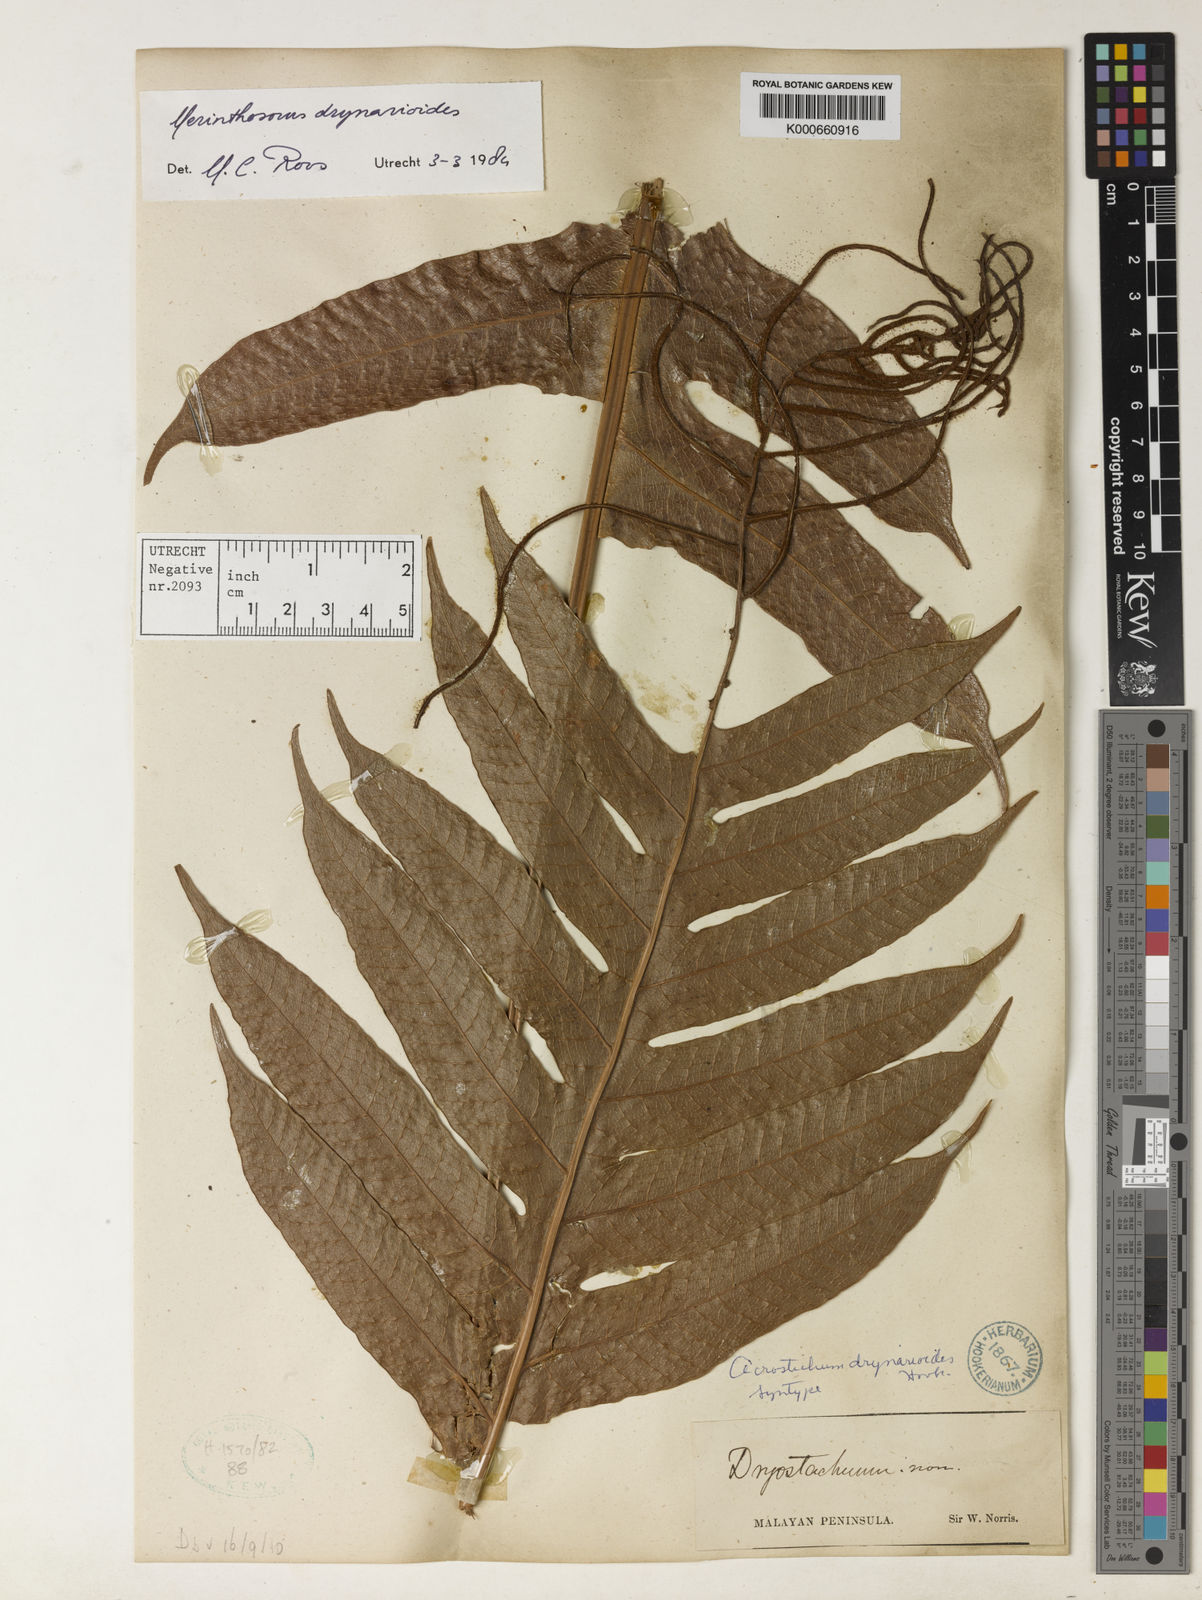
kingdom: Plantae
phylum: Tracheophyta
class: Polypodiopsida
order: Polypodiales
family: Polypodiaceae
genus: Drynaria
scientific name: Drynaria drynarioides
